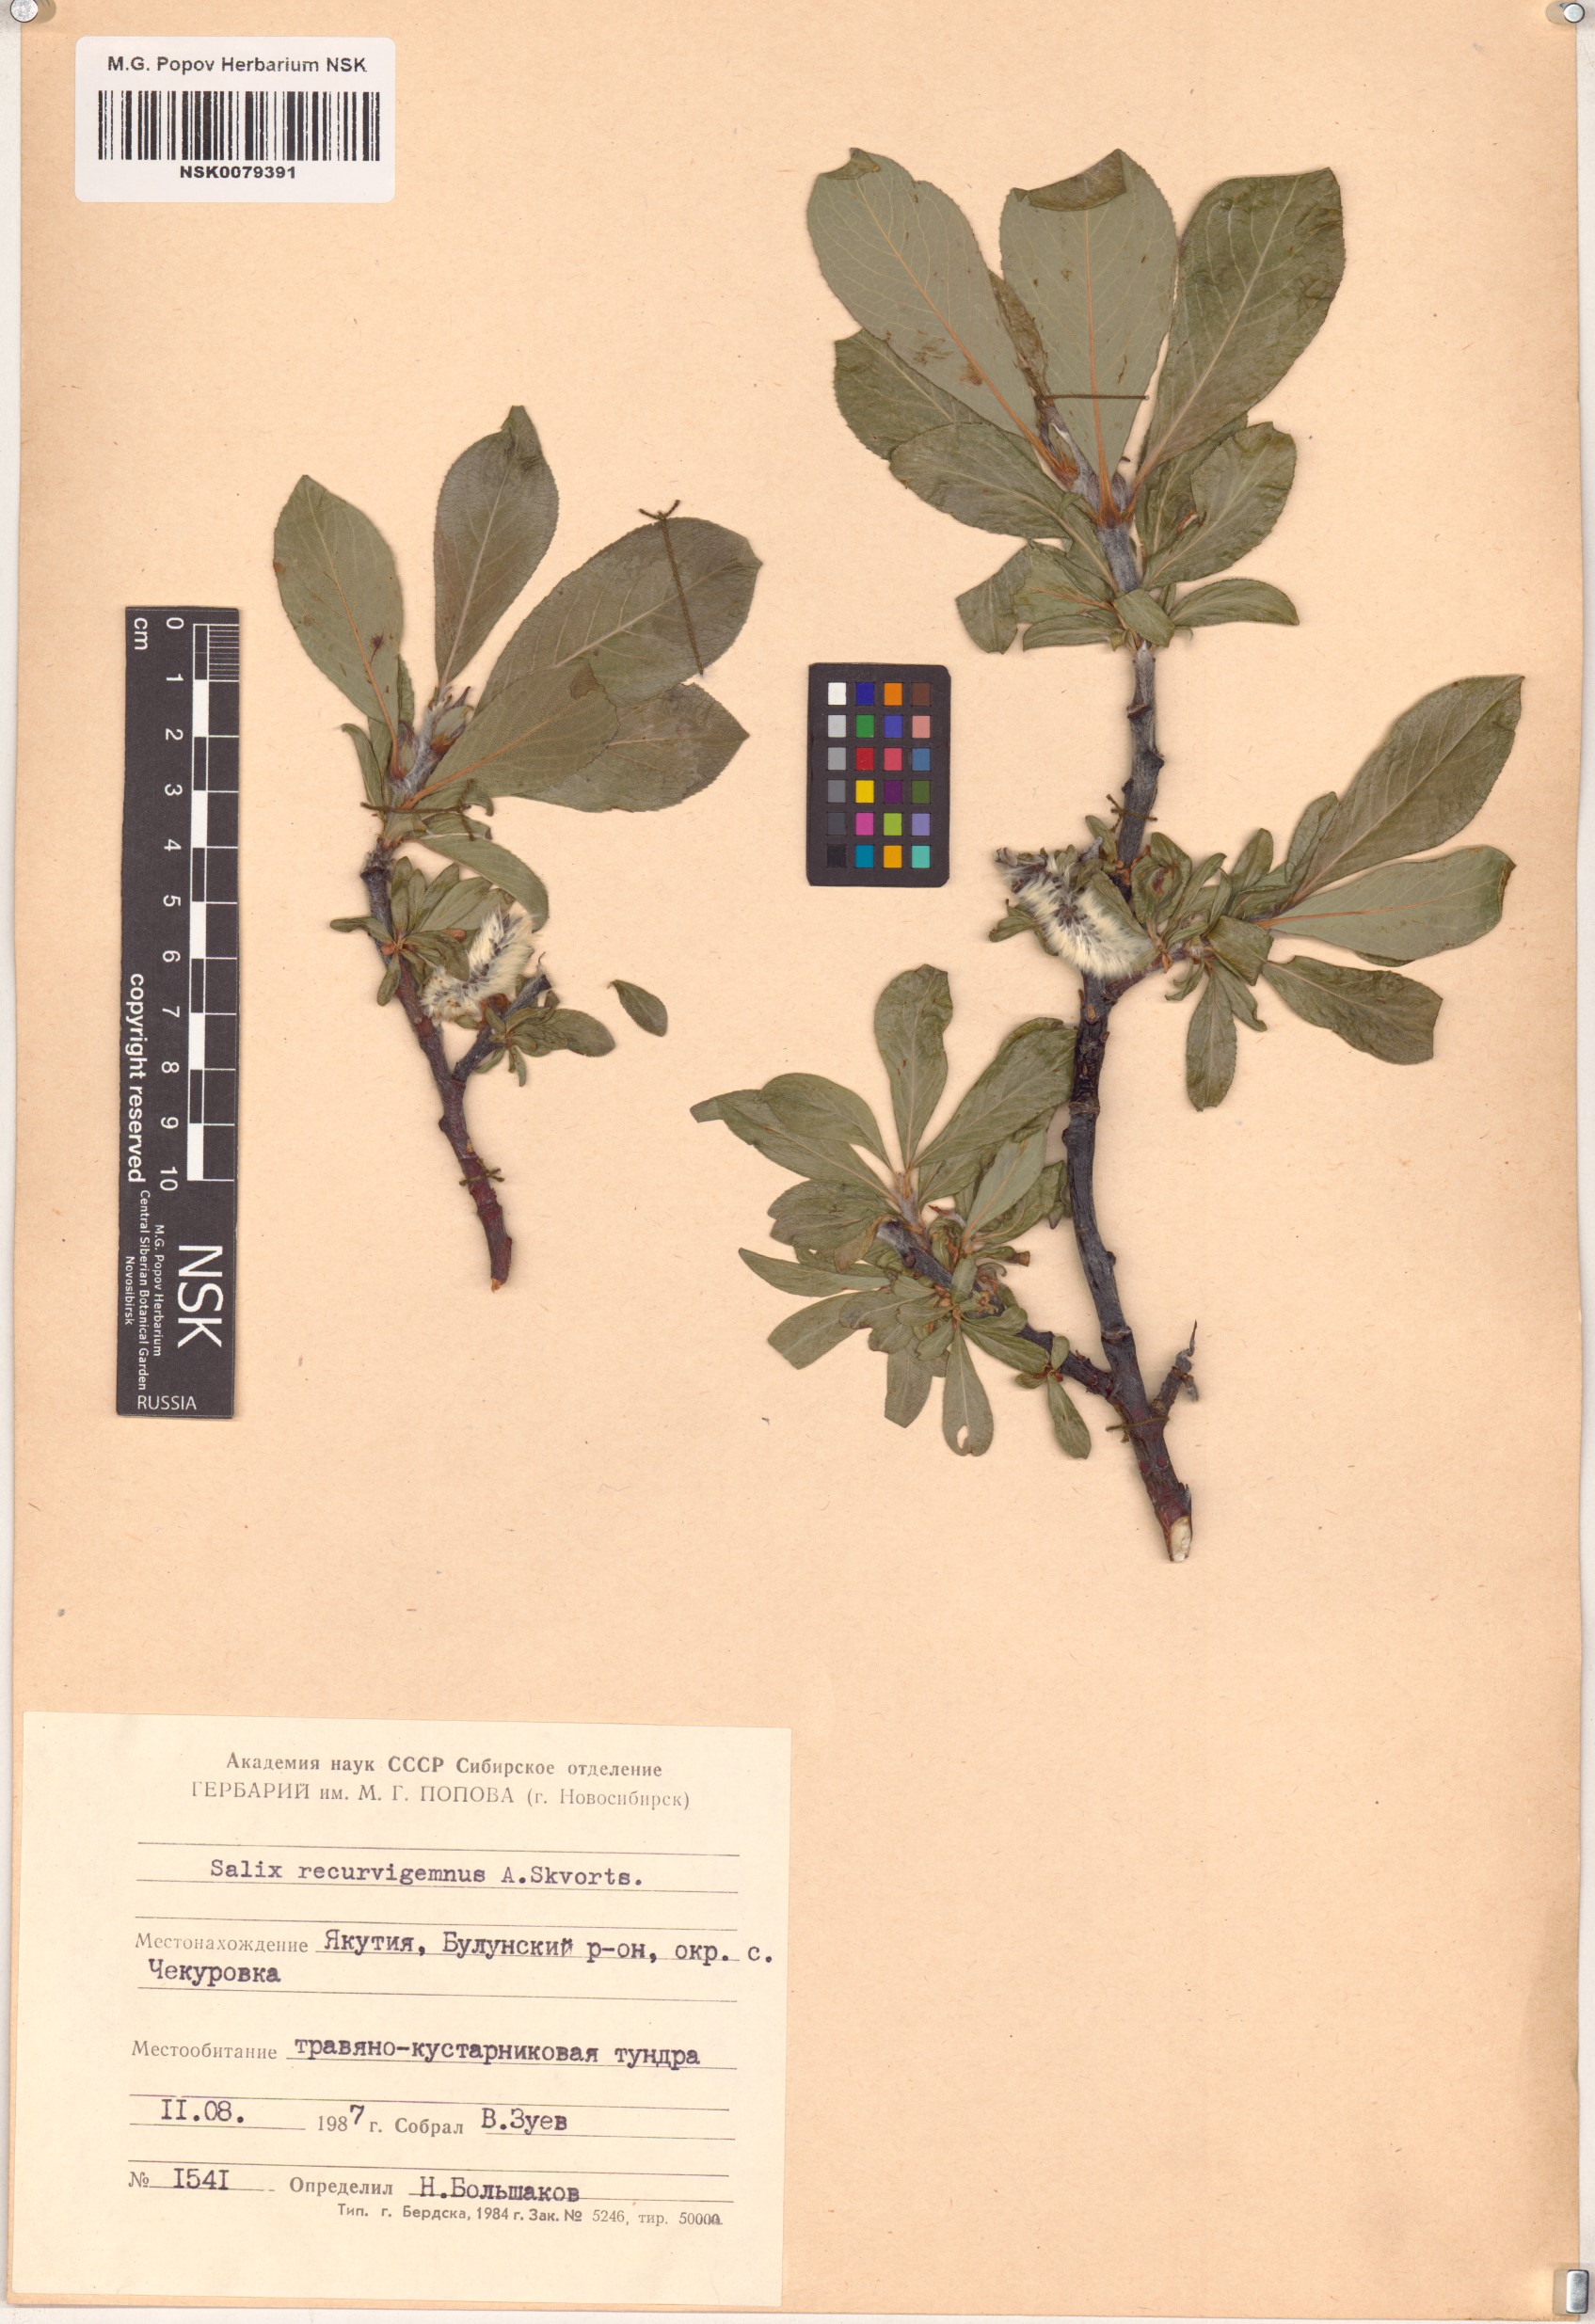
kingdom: Plantae
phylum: Tracheophyta
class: Magnoliopsida
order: Malpighiales
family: Salicaceae
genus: Salix
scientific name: Salix recurvigemmata
